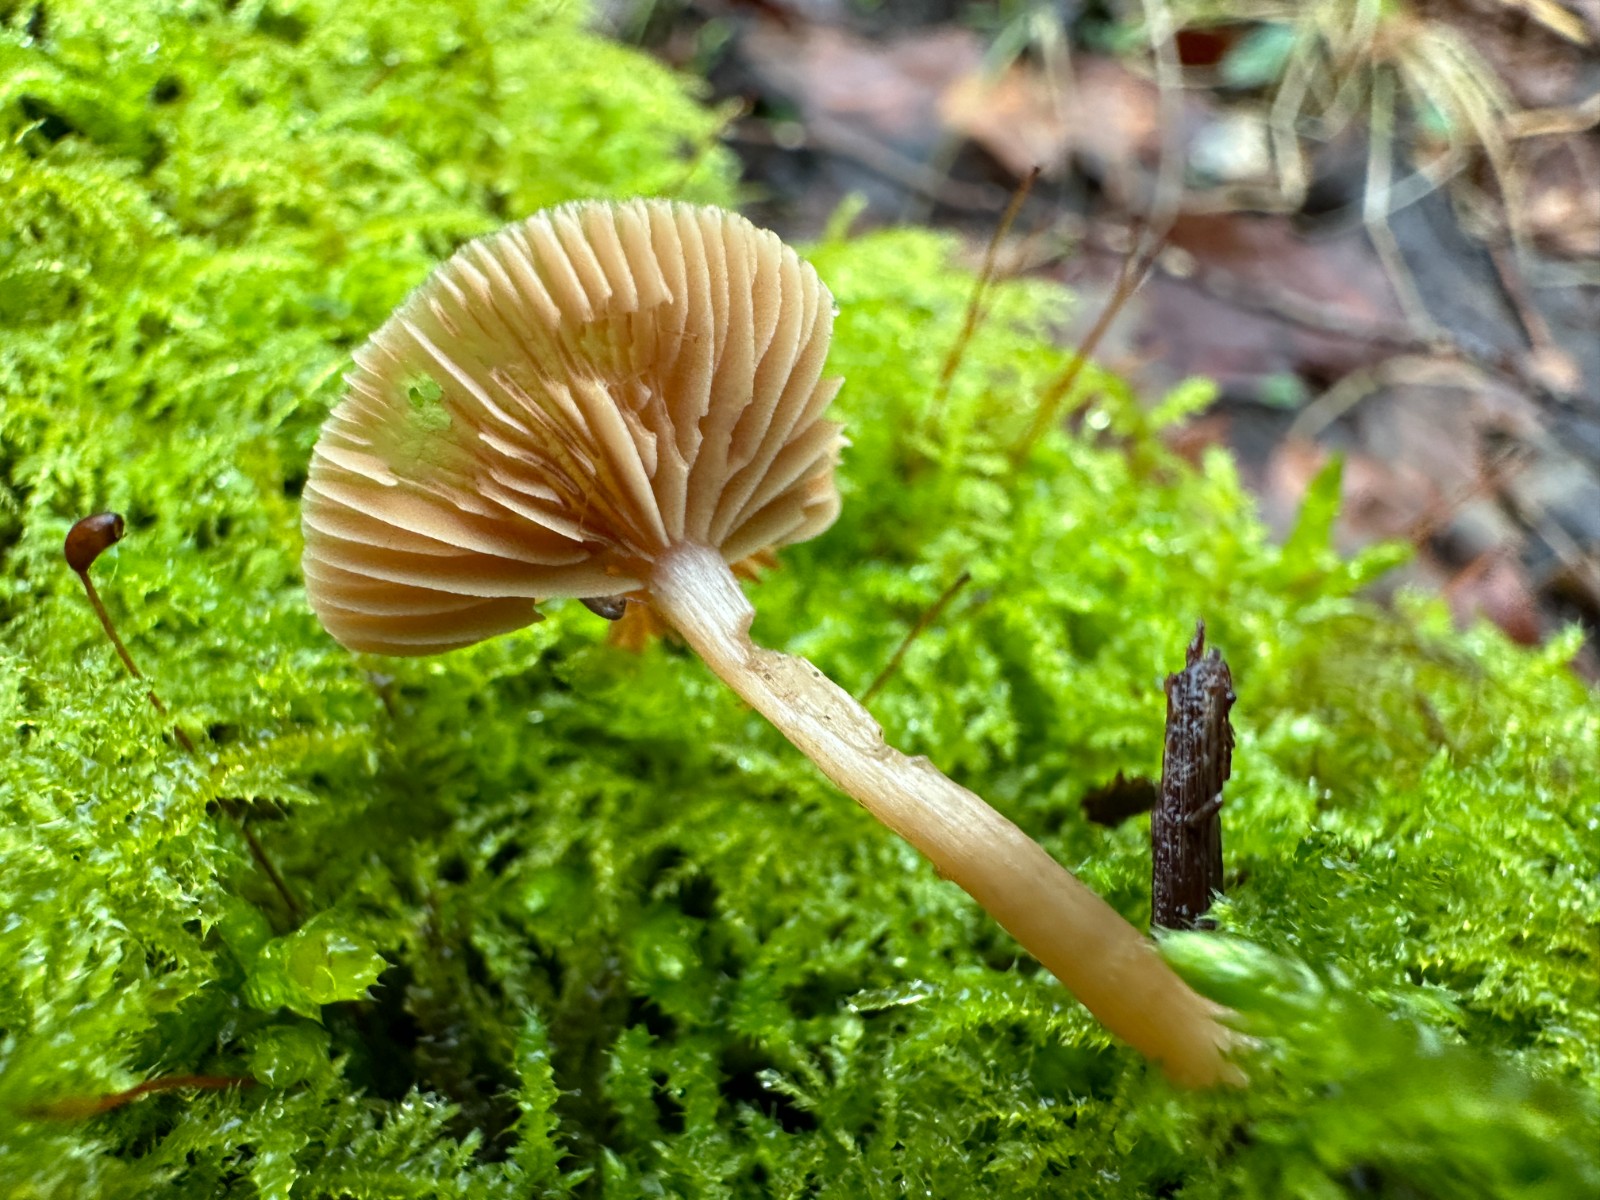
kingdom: Fungi
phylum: Basidiomycota
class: Agaricomycetes
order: Agaricales
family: Tubariaceae
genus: Tubaria
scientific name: Tubaria furfuracea
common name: kliddet fnughat
